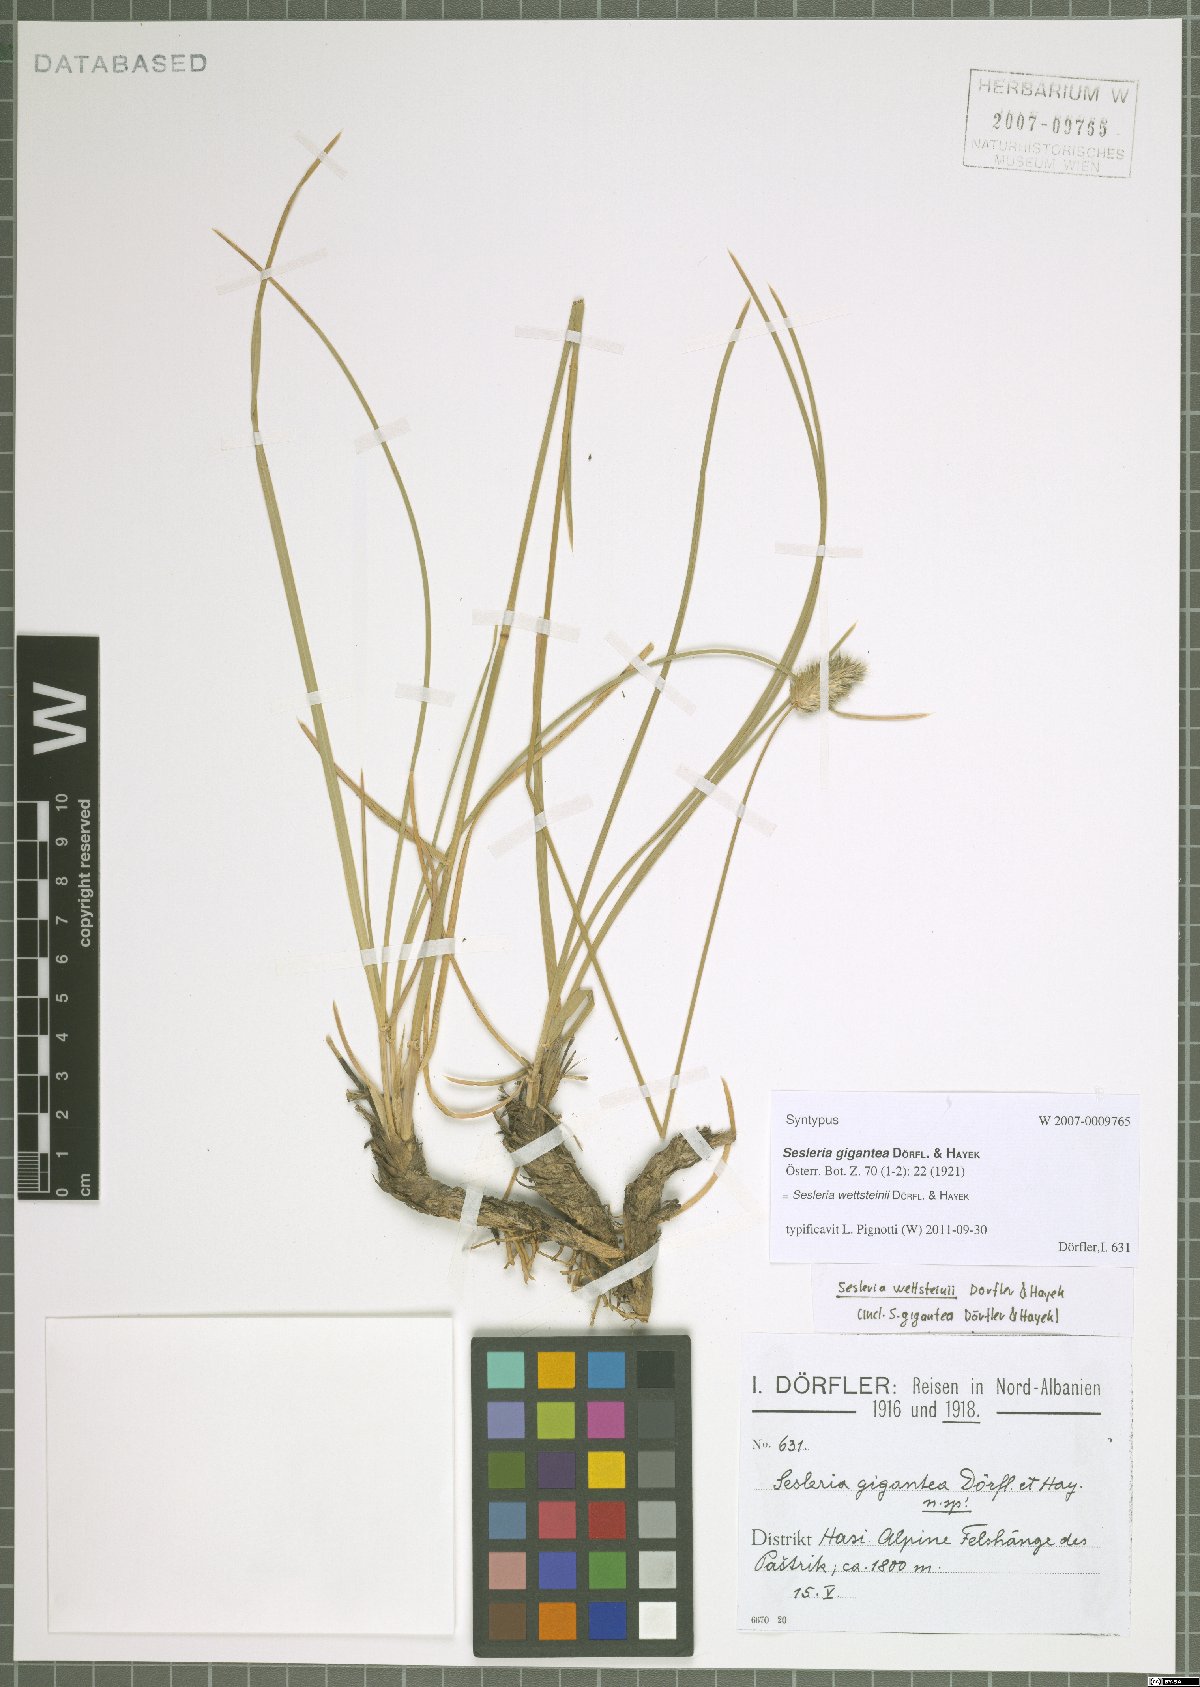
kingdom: Plantae
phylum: Tracheophyta
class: Liliopsida
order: Poales
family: Poaceae
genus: Sesleria
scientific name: Sesleria wettsteinii
